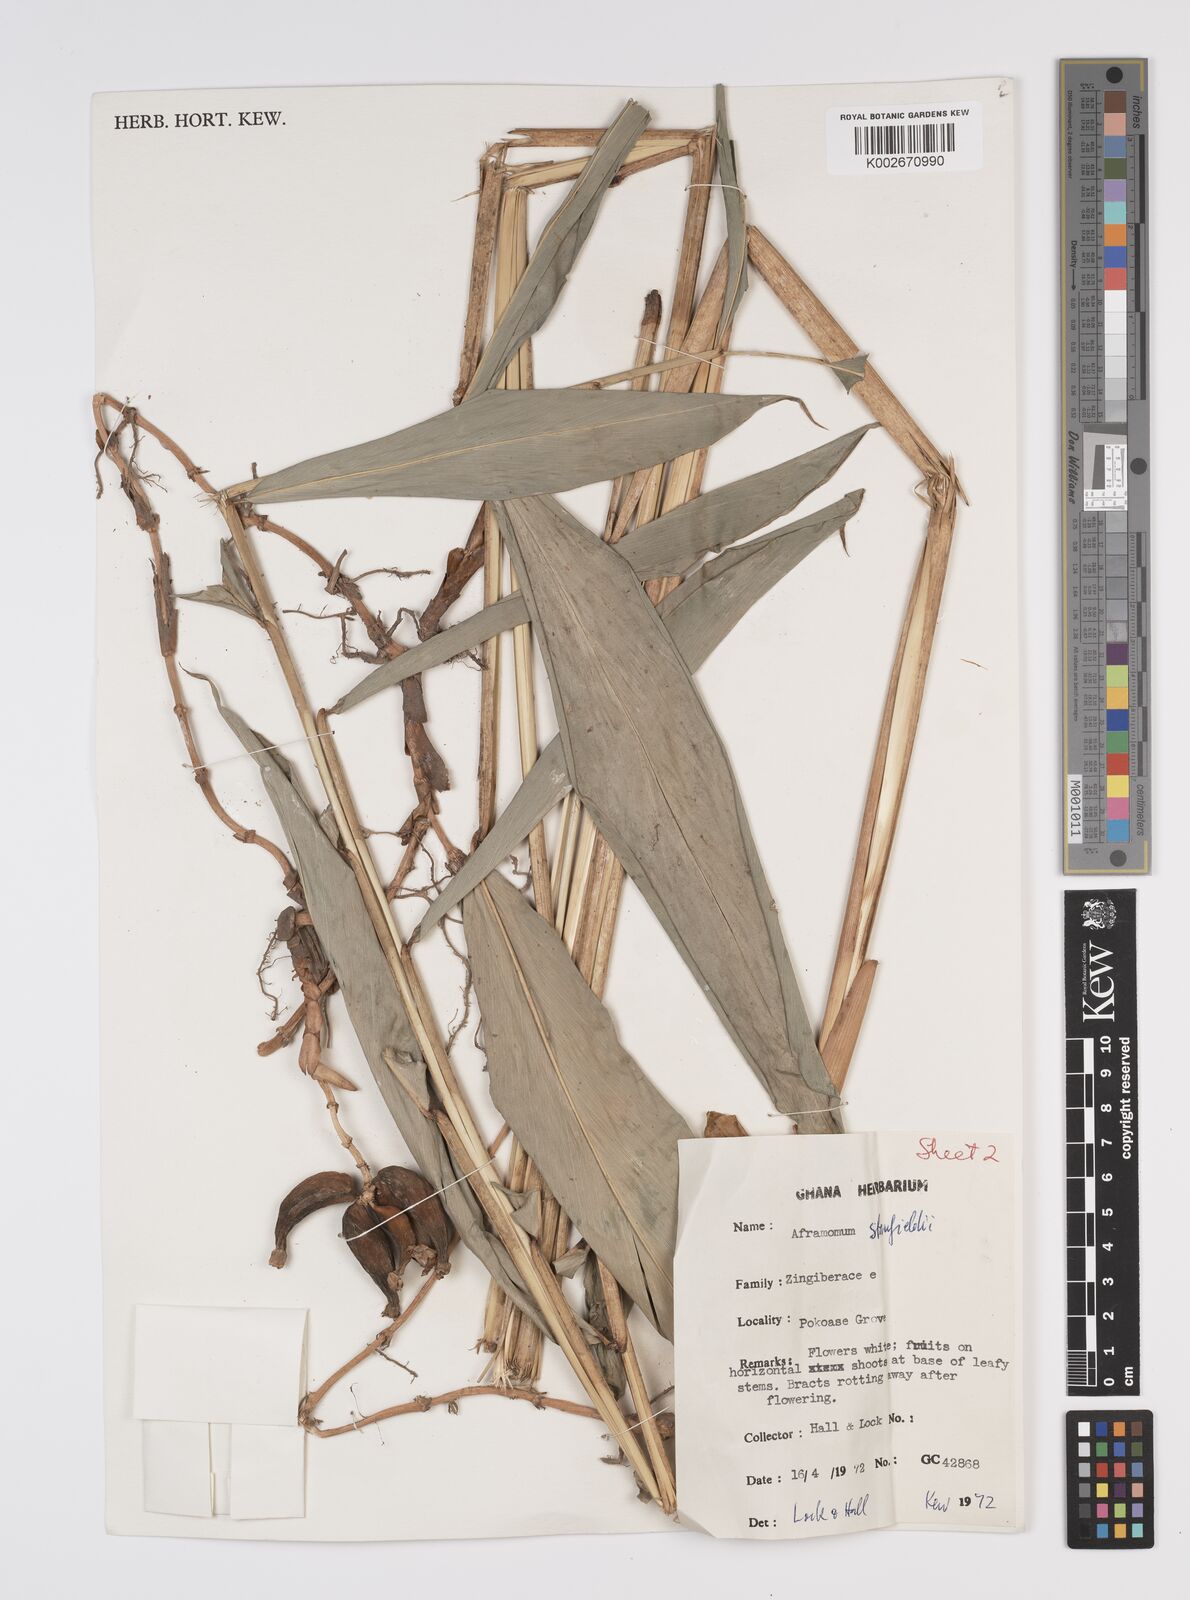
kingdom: Plantae
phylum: Tracheophyta
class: Liliopsida
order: Zingiberales
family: Zingiberaceae
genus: Aframomum
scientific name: Aframomum stanfieldii
